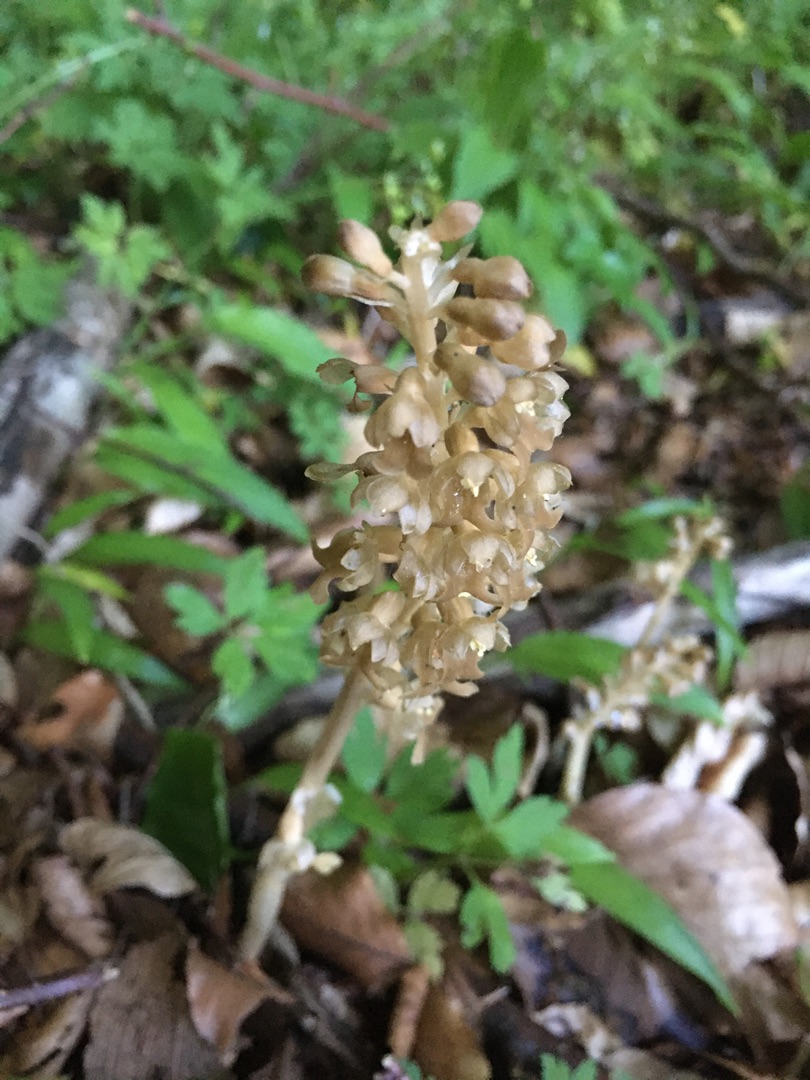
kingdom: Plantae
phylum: Tracheophyta
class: Liliopsida
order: Asparagales
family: Orchidaceae
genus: Neottia
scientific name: Neottia nidus-avis
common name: Rederod
